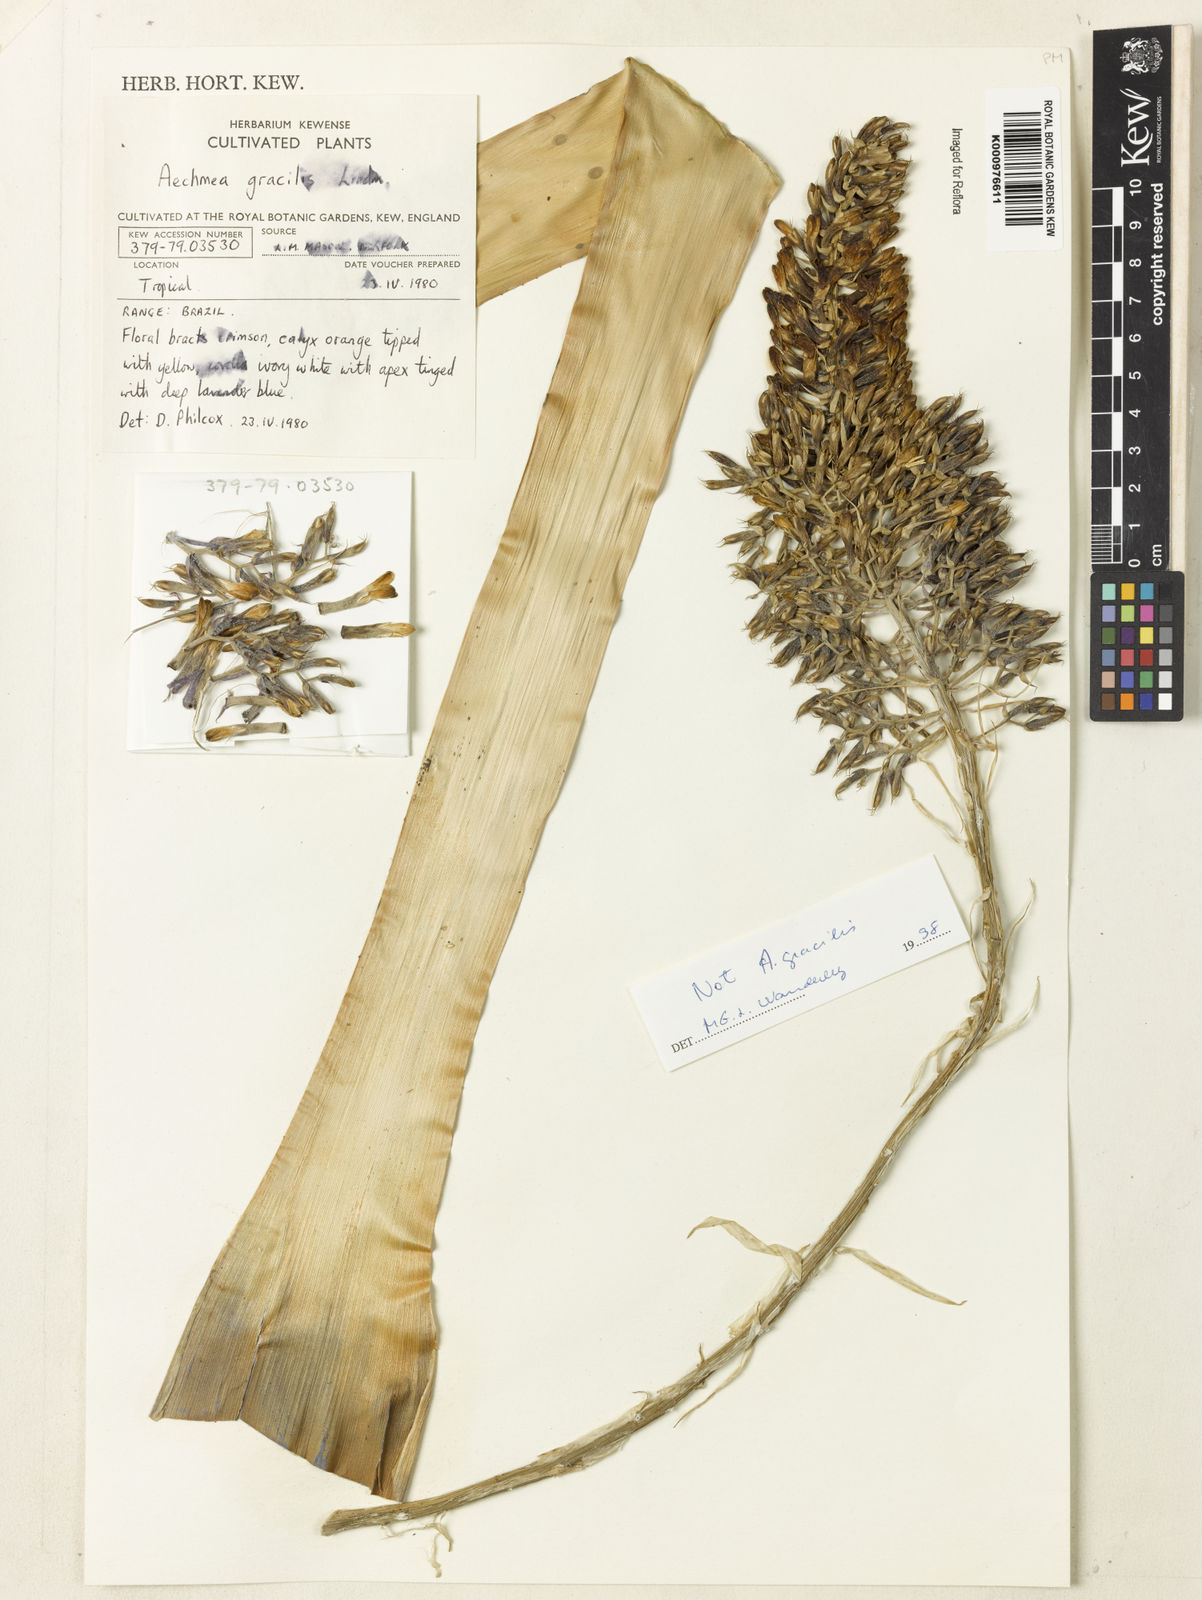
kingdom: Plantae
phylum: Tracheophyta
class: Liliopsida
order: Poales
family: Bromeliaceae
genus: Aechmea
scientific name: Aechmea gracilis
